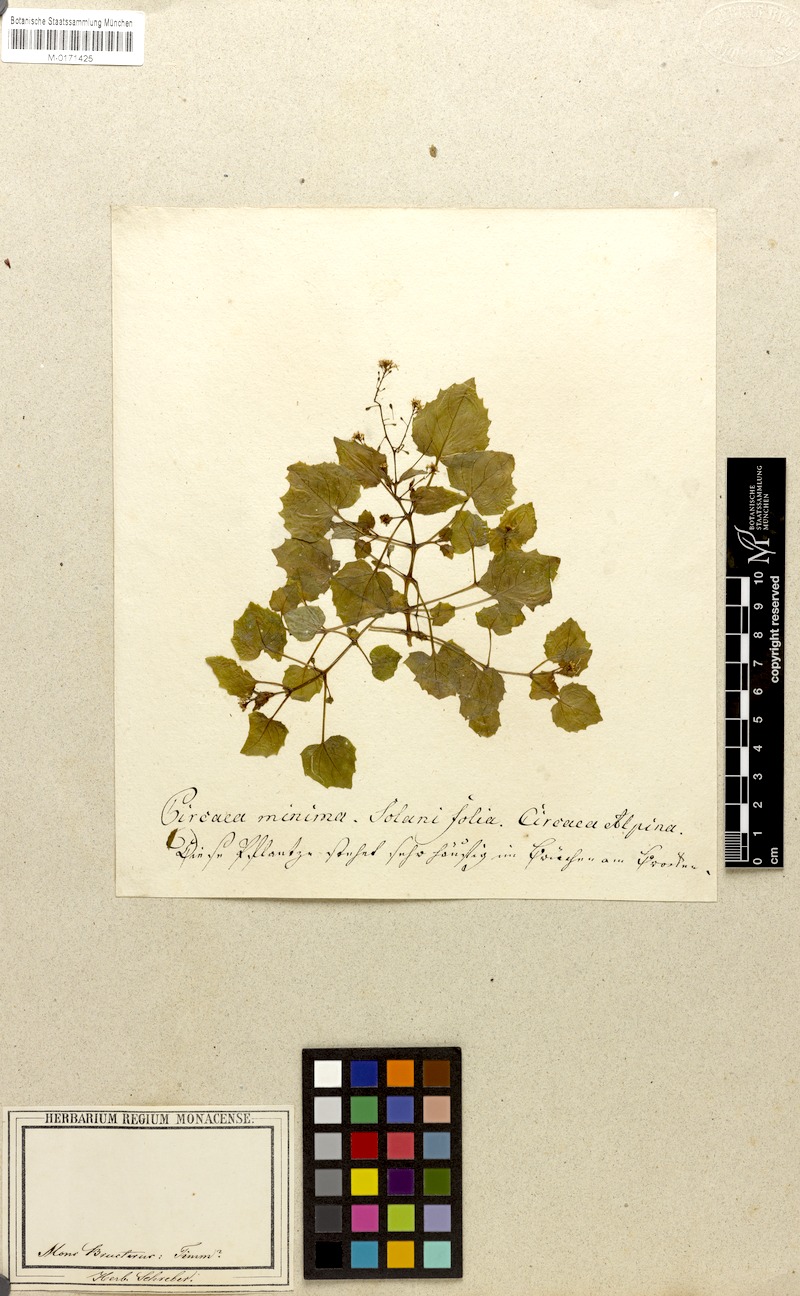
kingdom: Plantae
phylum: Tracheophyta
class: Magnoliopsida
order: Myrtales
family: Onagraceae
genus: Circaea
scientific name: Circaea alpina
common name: Alpine enchanter's-nightshade
